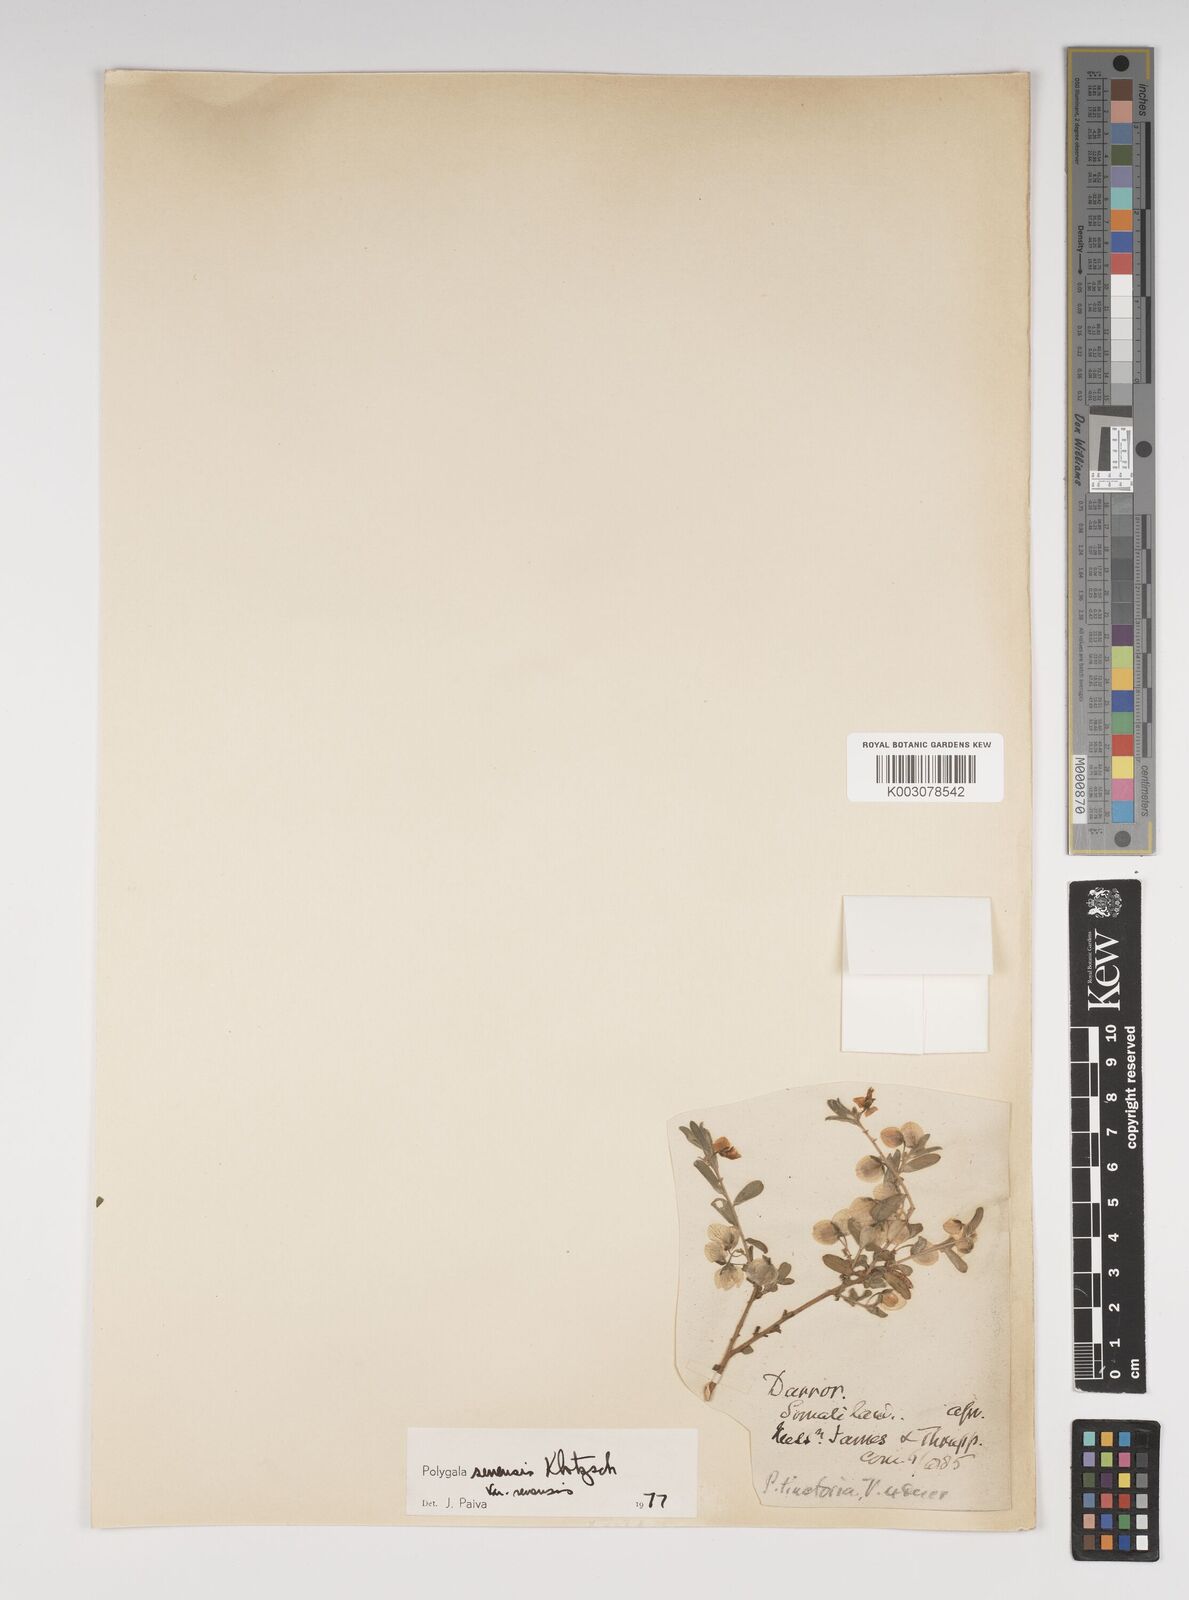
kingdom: Plantae
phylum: Tracheophyta
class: Magnoliopsida
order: Fabales
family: Polygalaceae
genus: Polygala
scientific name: Polygala senensis
